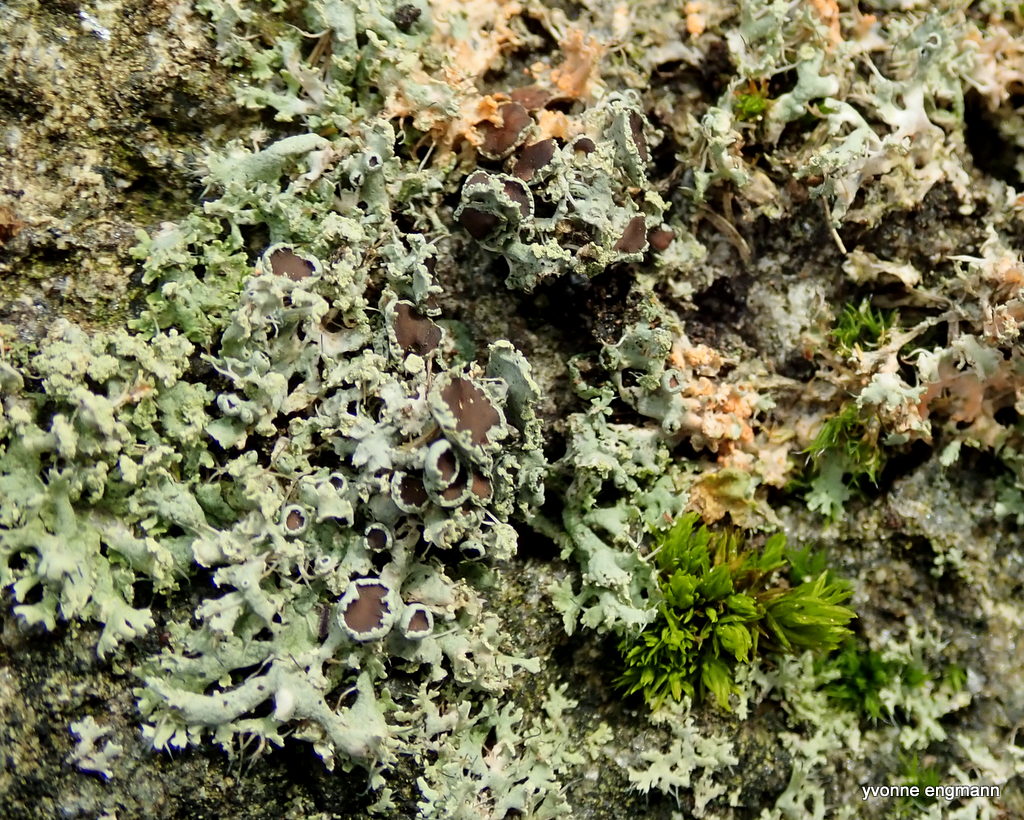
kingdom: Fungi
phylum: Ascomycota
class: Lecanoromycetes
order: Caliciales
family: Physciaceae
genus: Physcia
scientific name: Physcia tenella
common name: spæd rosetlav
